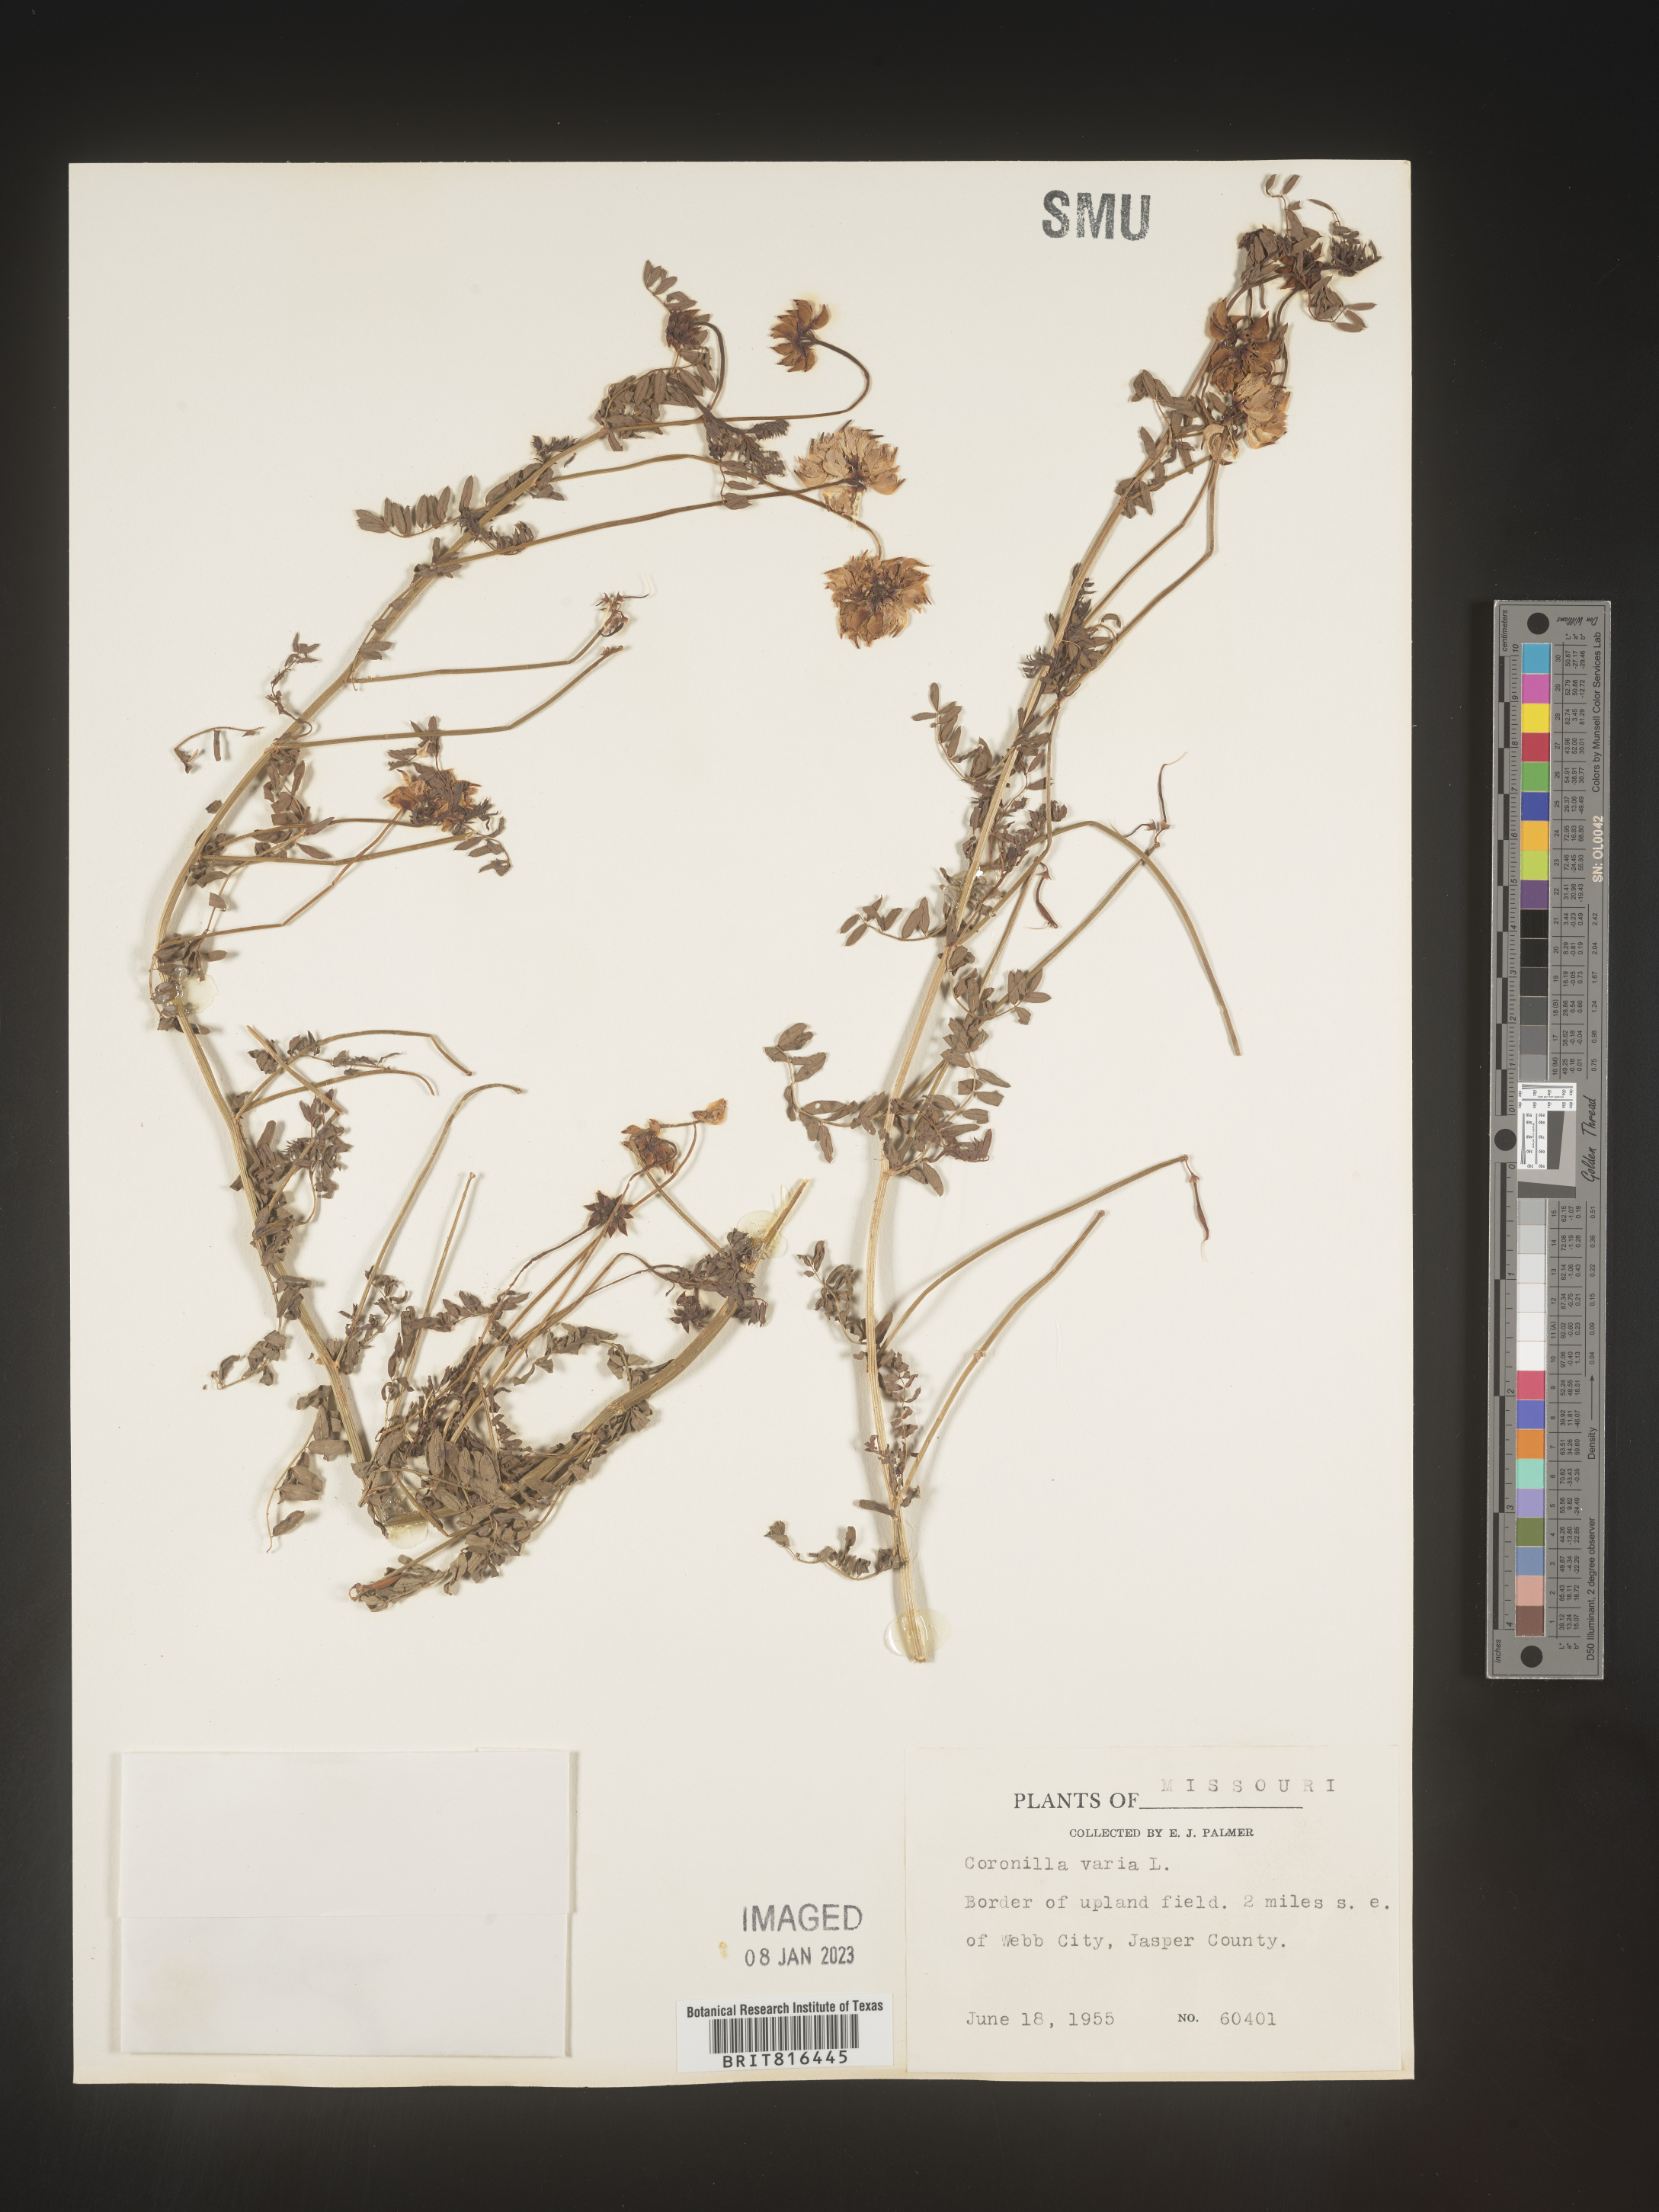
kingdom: Plantae
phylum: Tracheophyta
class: Magnoliopsida
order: Fabales
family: Fabaceae
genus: Coronilla
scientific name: Coronilla
